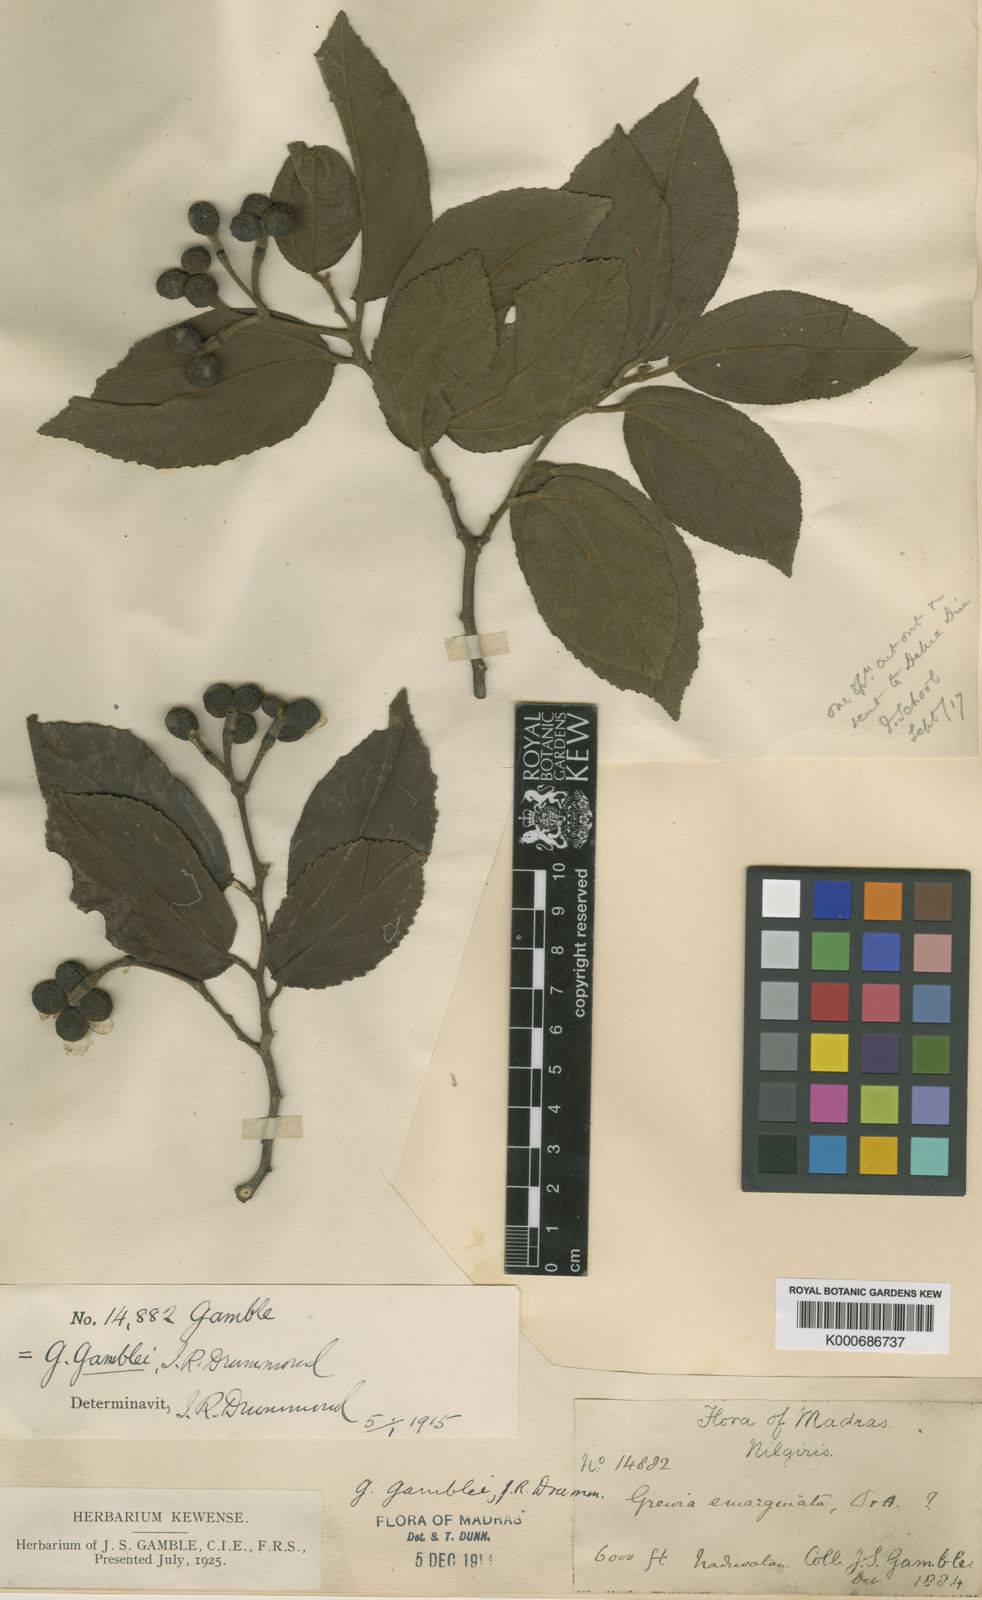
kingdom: Plantae
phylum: Tracheophyta
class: Magnoliopsida
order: Malvales
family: Malvaceae
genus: Grewia
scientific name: Grewia gamblei
